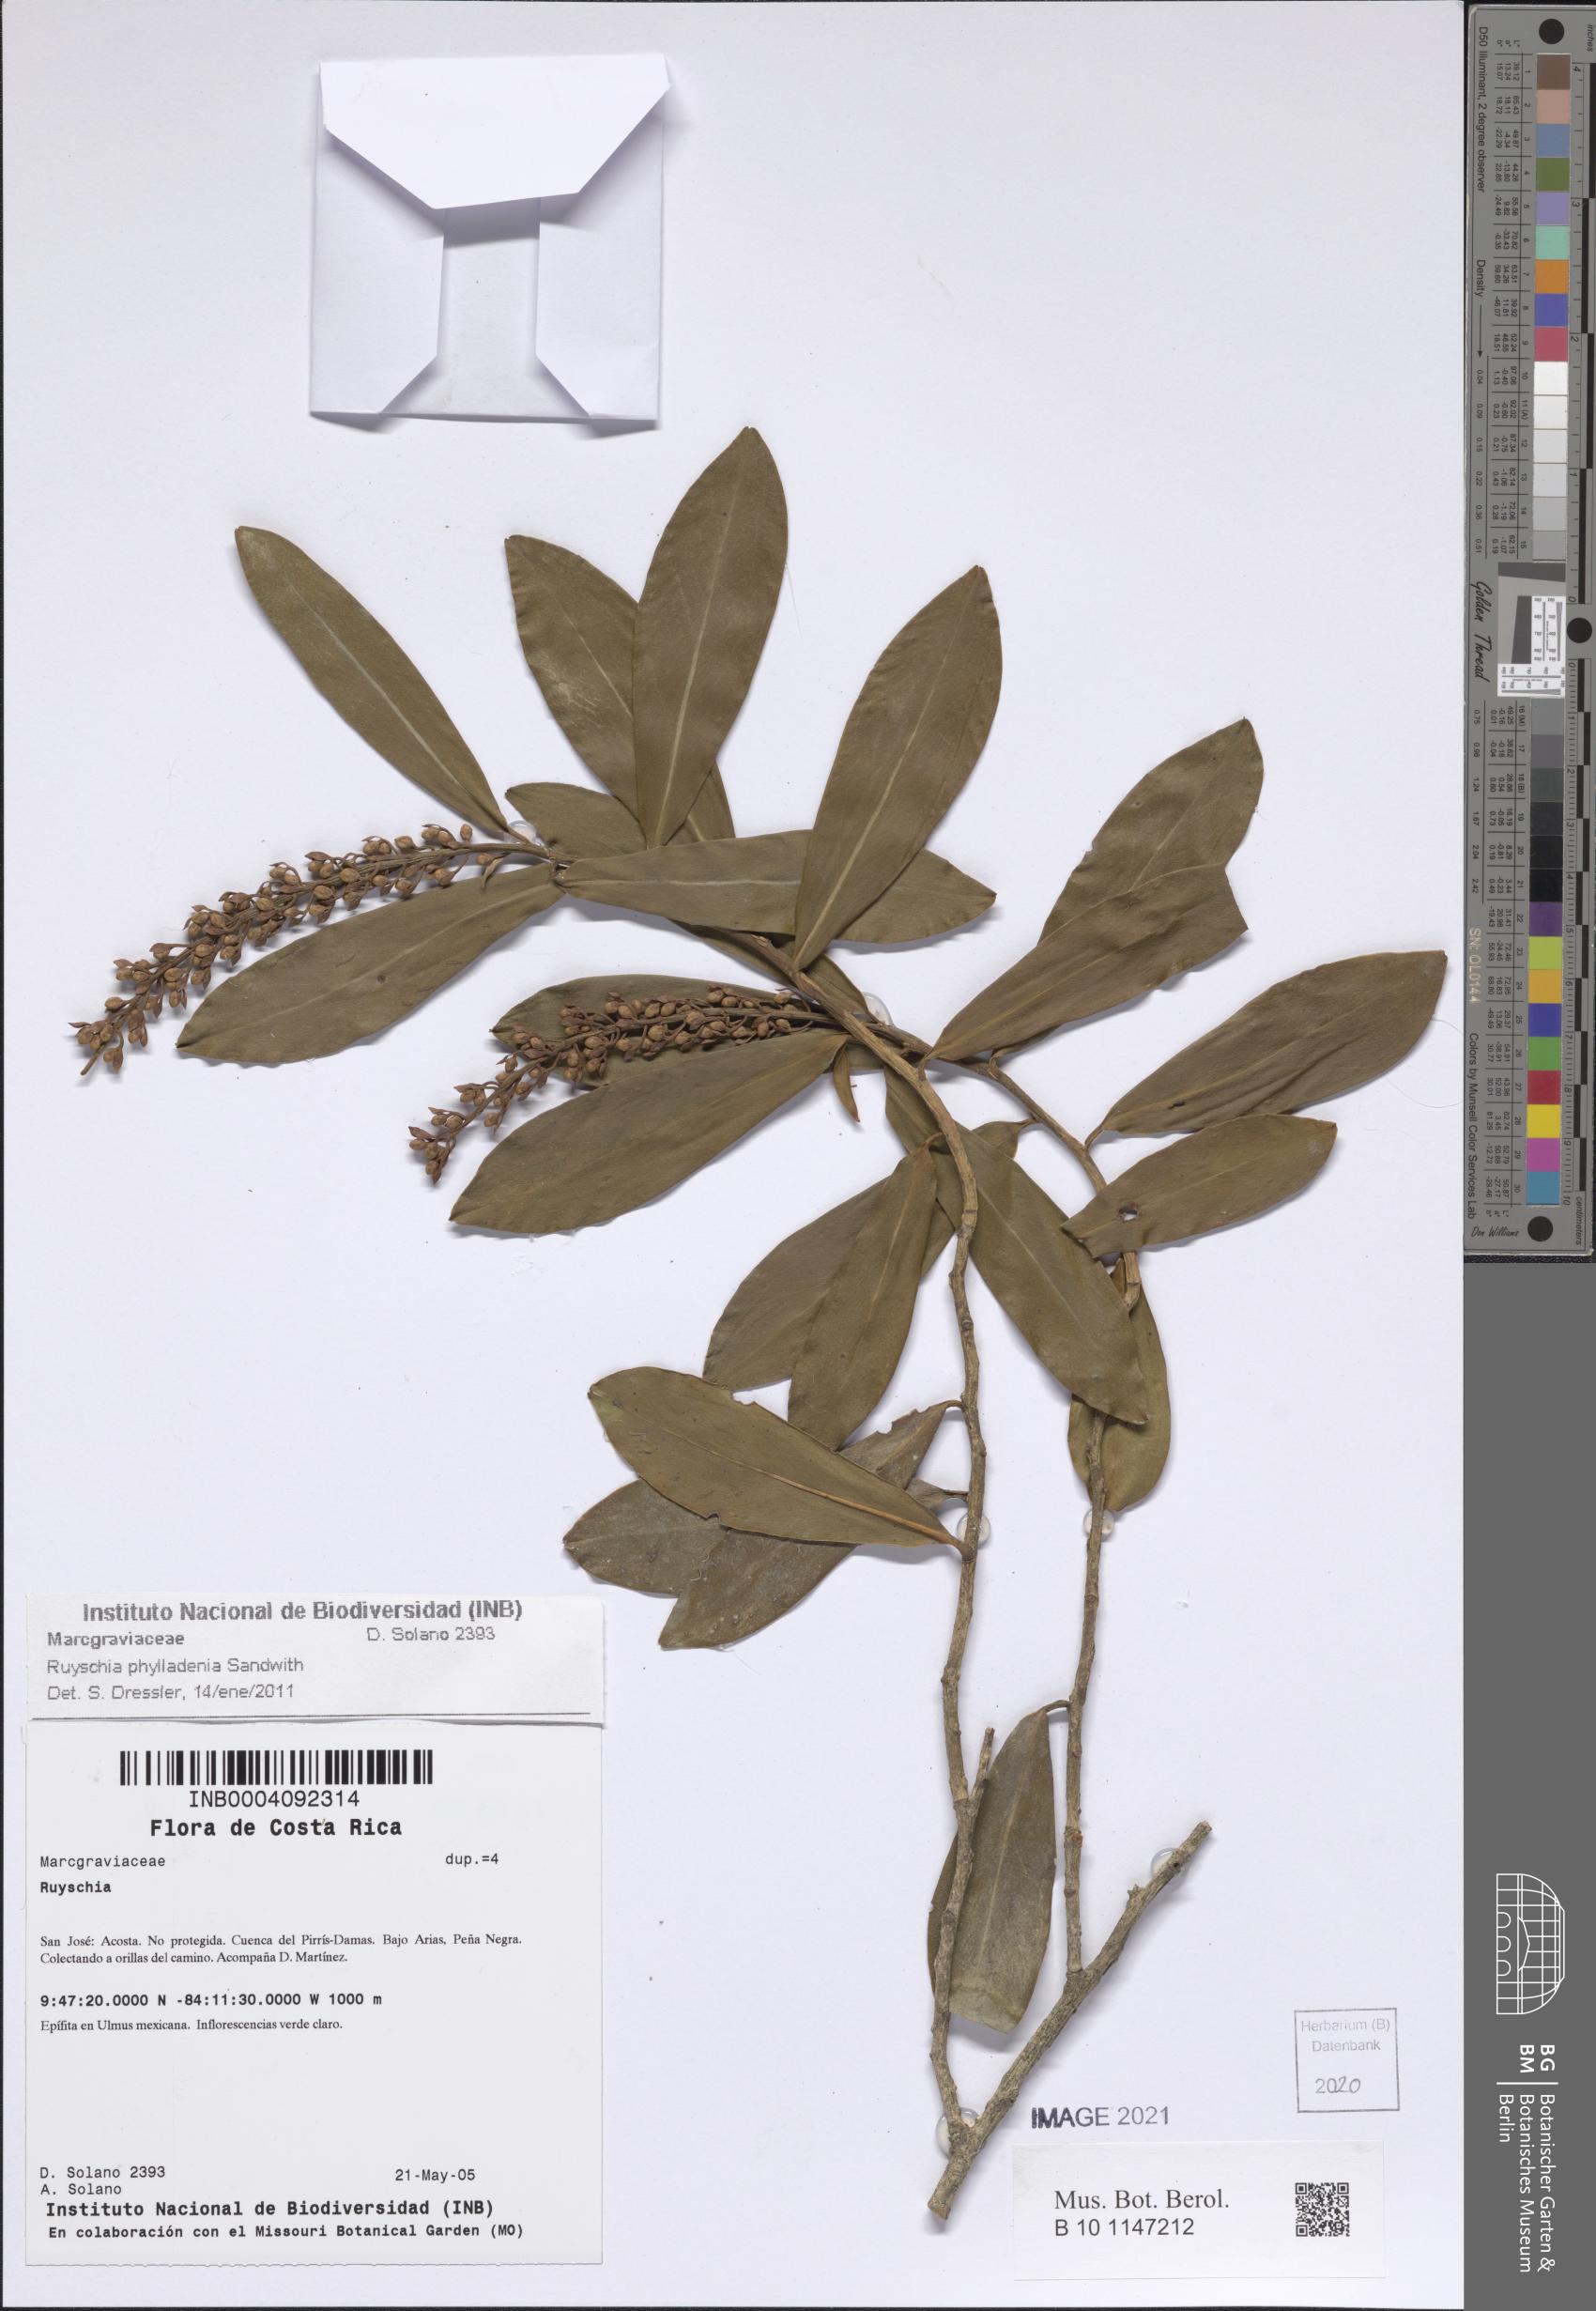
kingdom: Plantae
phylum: Tracheophyta
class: Magnoliopsida
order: Ericales
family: Marcgraviaceae
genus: Ruyschia
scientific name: Ruyschia phylladenia
